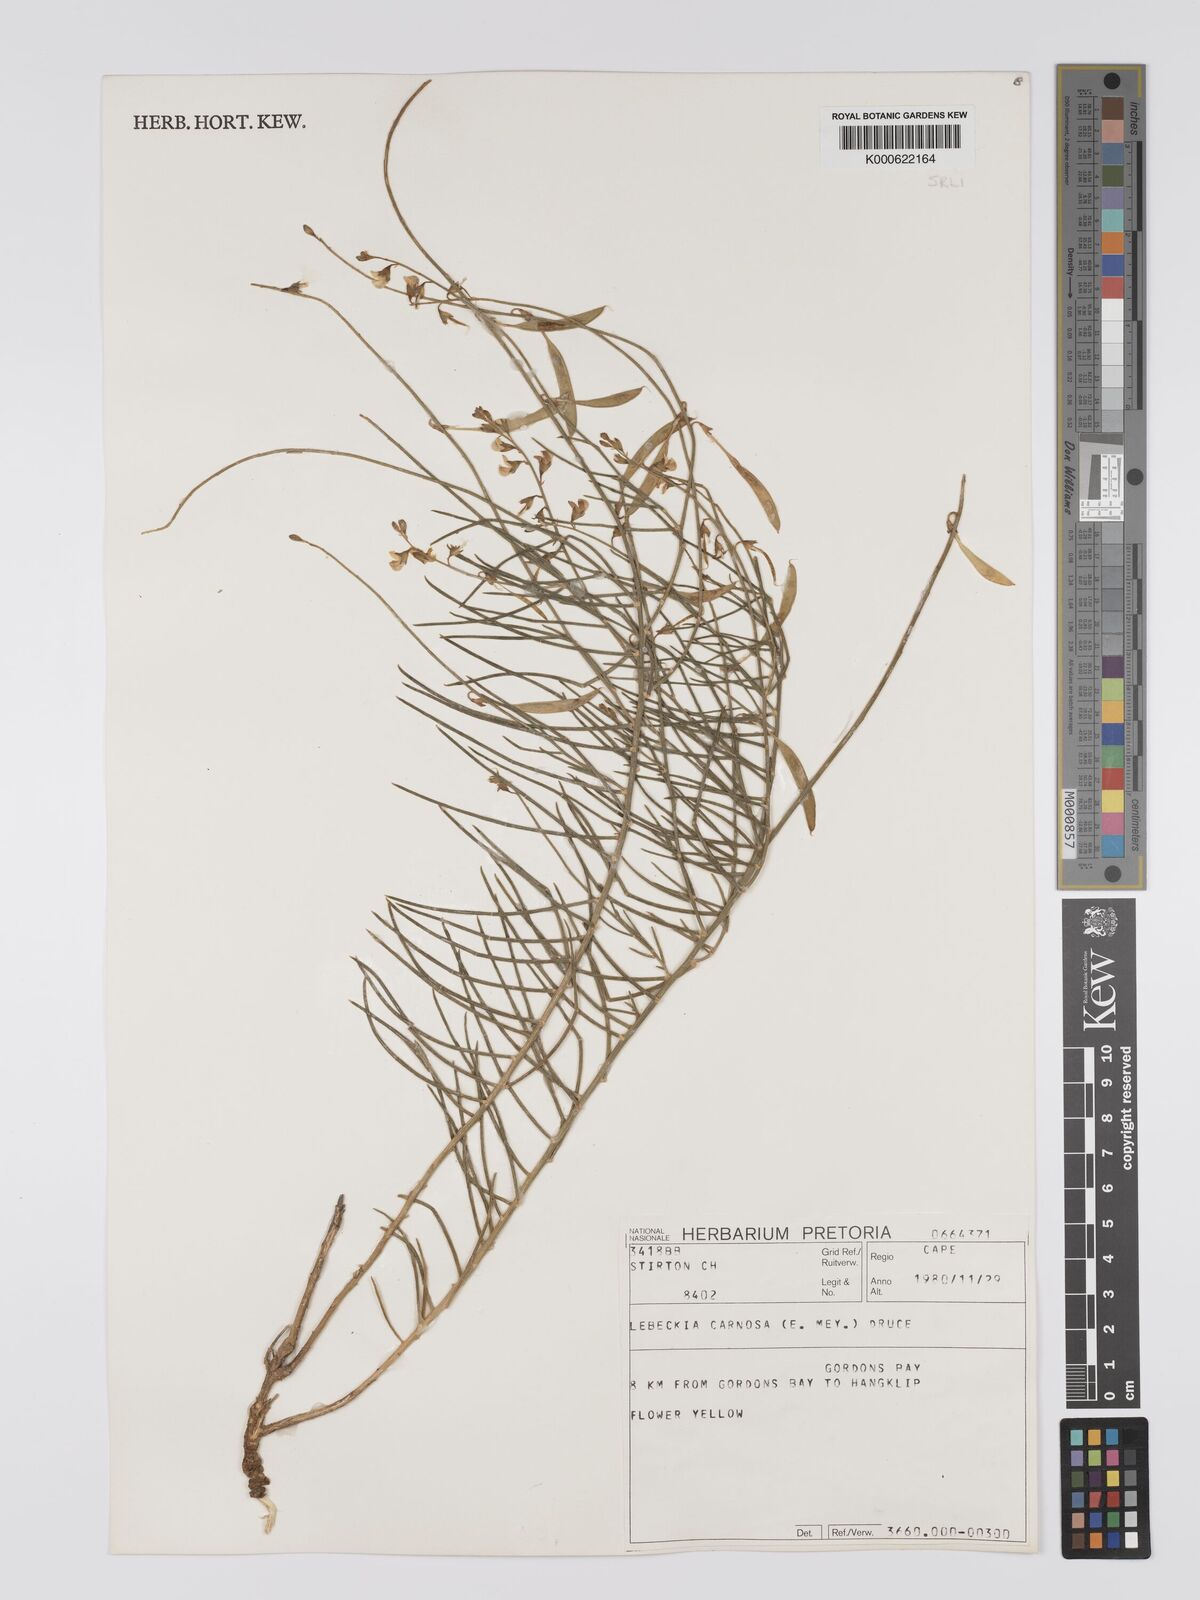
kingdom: Plantae
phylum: Tracheophyta
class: Magnoliopsida
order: Fabales
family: Fabaceae
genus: Lebeckia
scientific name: Lebeckia contaminata
